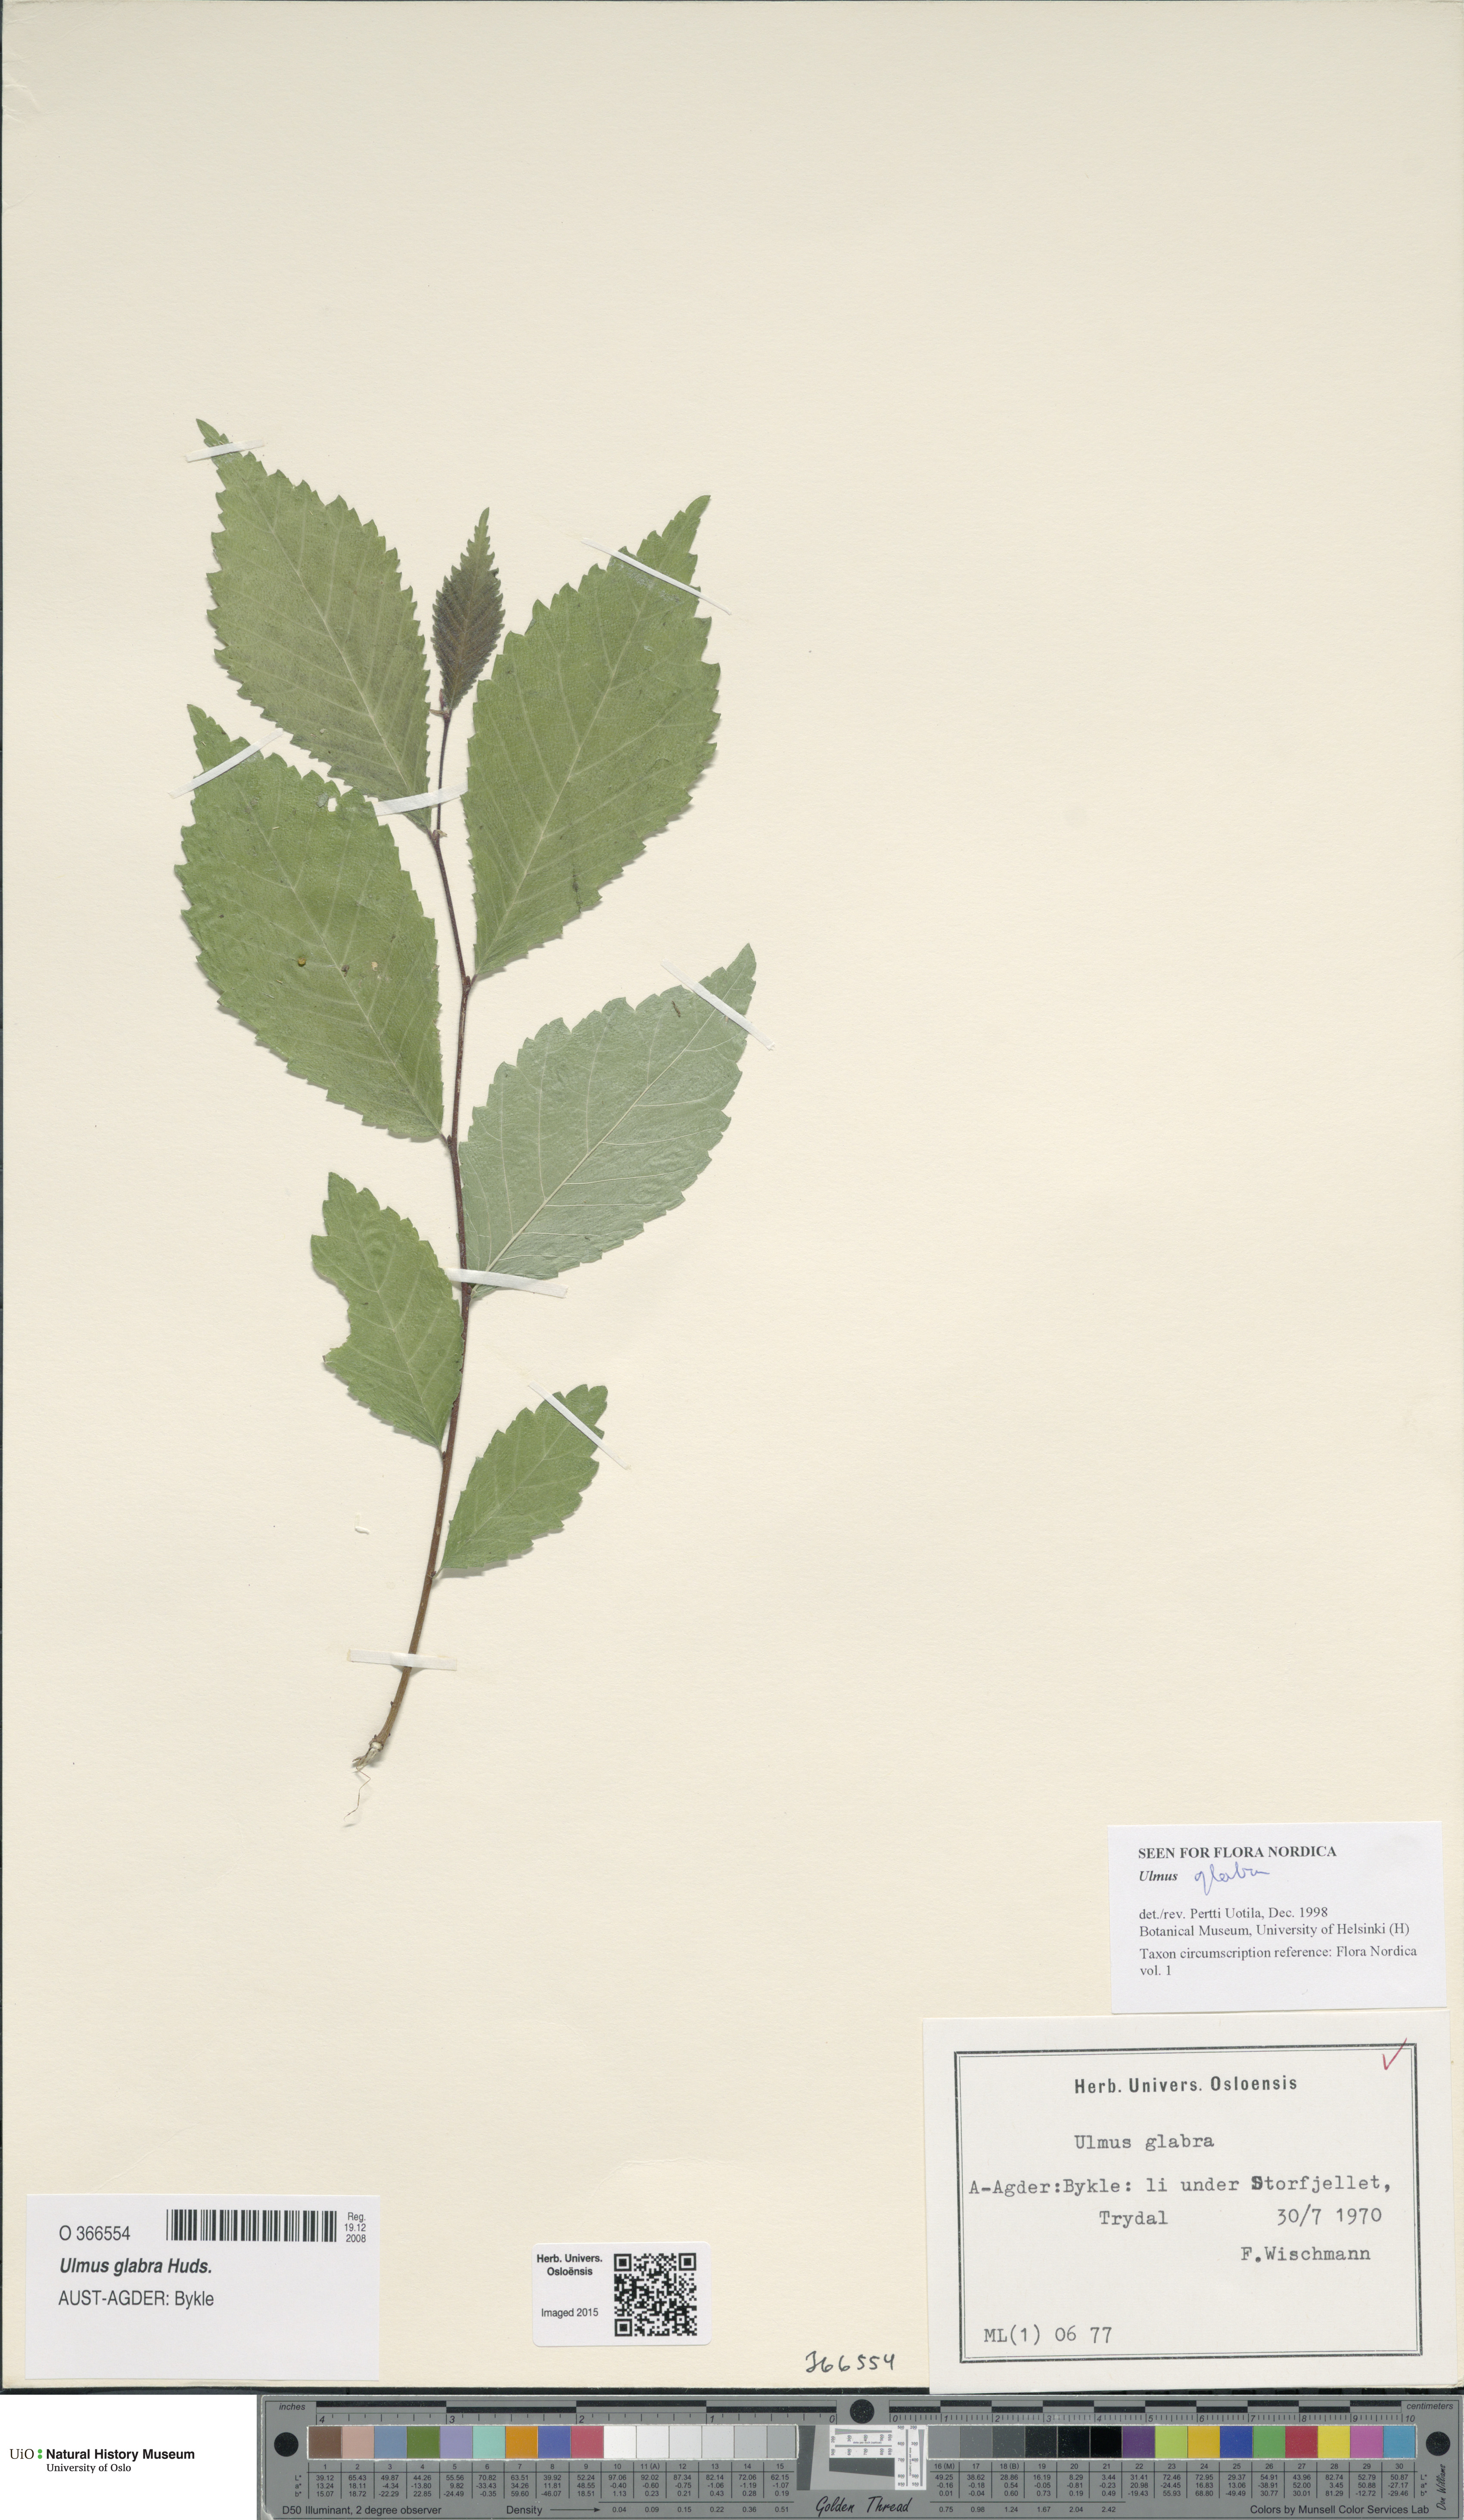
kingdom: Plantae
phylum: Tracheophyta
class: Magnoliopsida
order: Rosales
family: Ulmaceae
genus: Ulmus
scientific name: Ulmus glabra
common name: Wych elm
